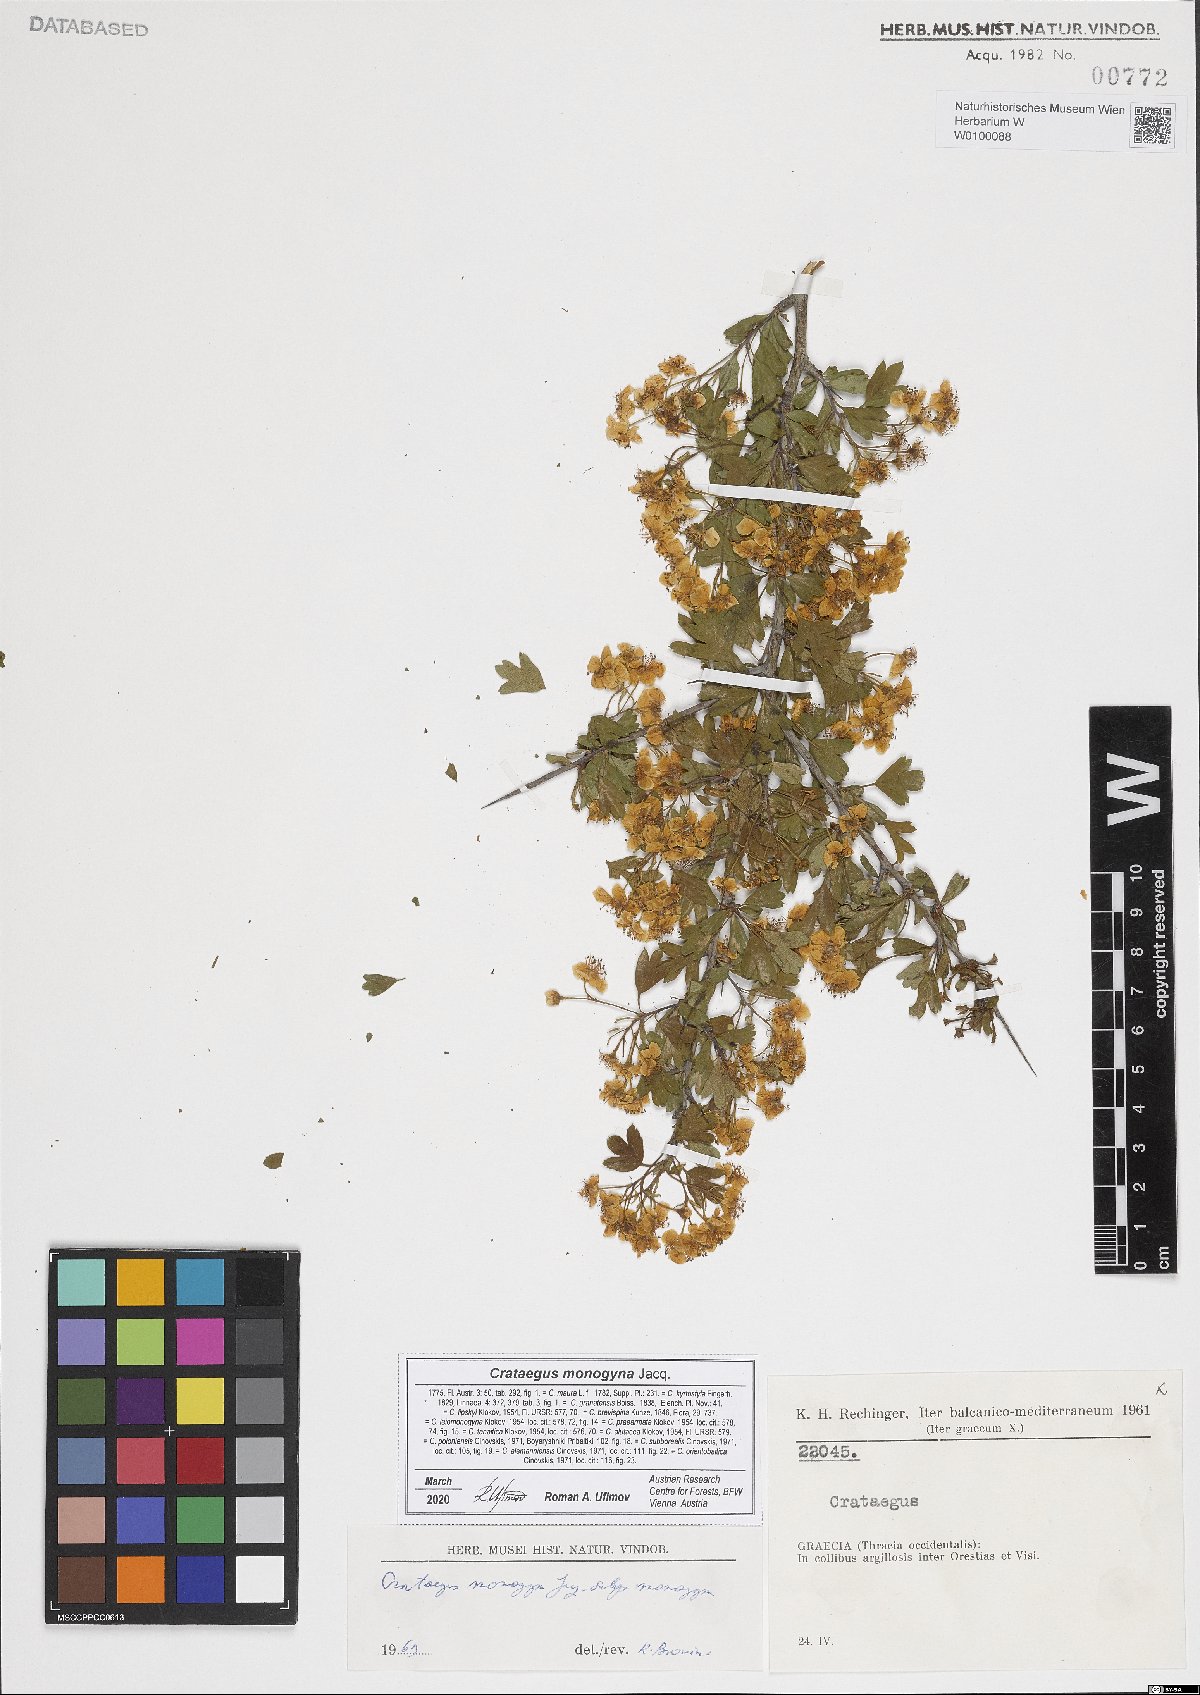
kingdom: Plantae
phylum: Tracheophyta
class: Magnoliopsida
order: Rosales
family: Rosaceae
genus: Crataegus
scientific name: Crataegus monogyna
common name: Hawthorn
